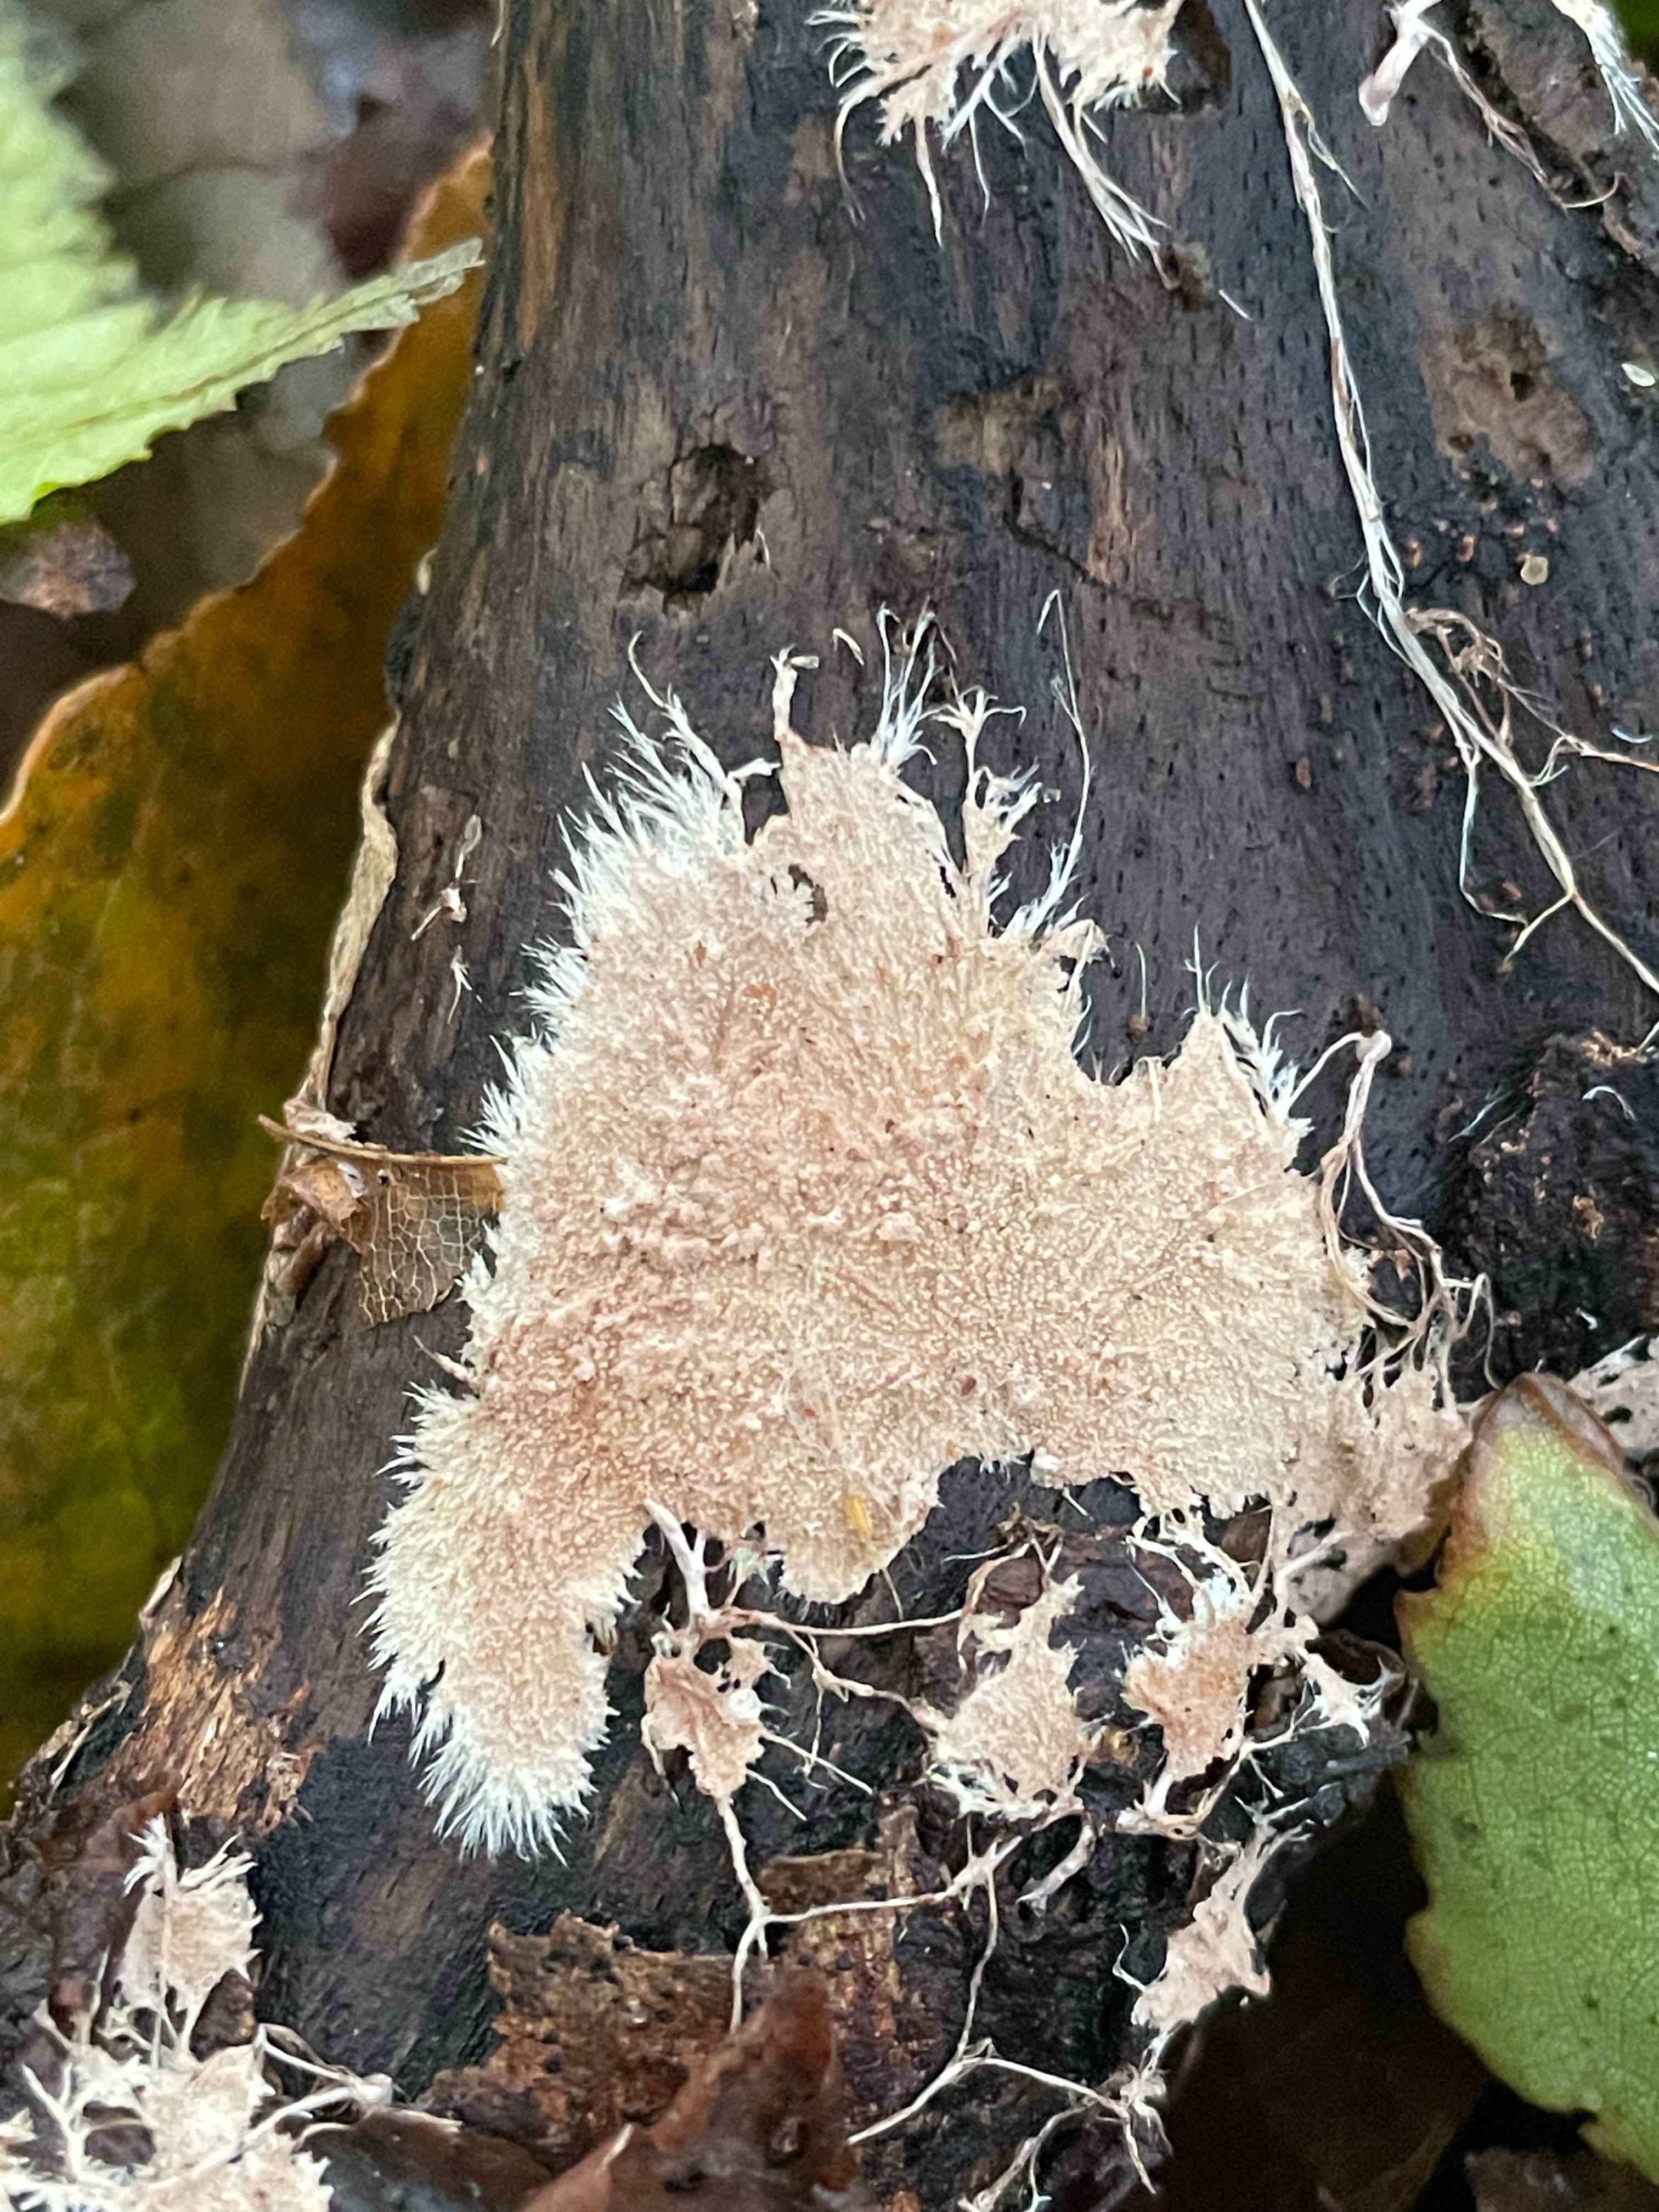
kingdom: Fungi
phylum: Basidiomycota
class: Agaricomycetes
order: Polyporales
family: Steccherinaceae
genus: Steccherinum
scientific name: Steccherinum fimbriatum
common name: trådet skønpig
